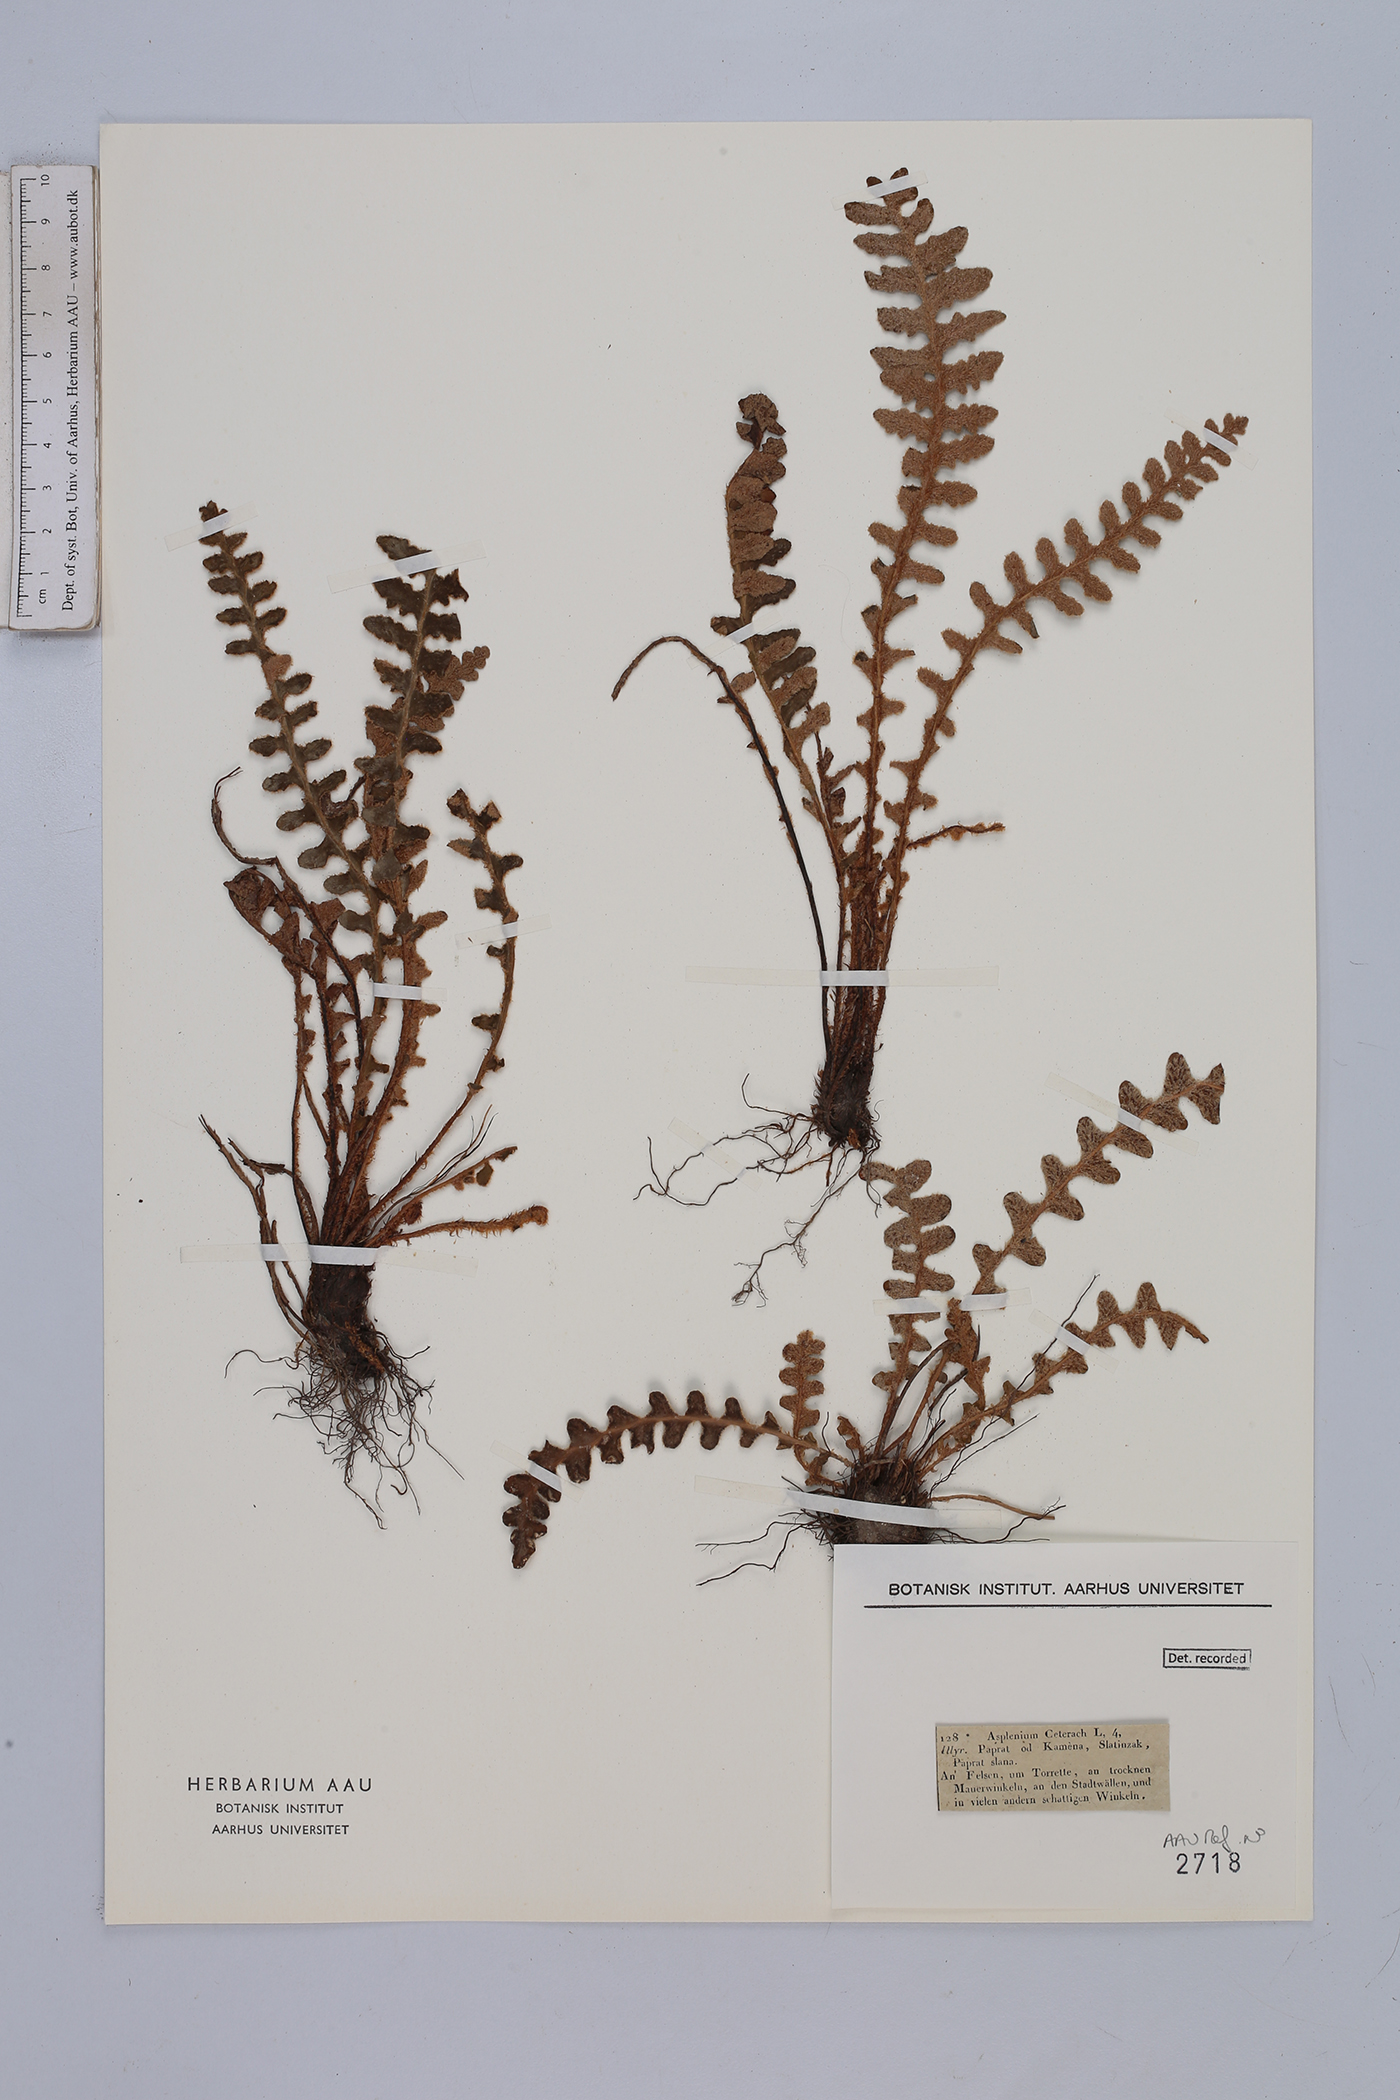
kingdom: Plantae
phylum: Tracheophyta
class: Polypodiopsida
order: Polypodiales
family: Aspleniaceae
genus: Asplenium
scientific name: Asplenium ceterach
